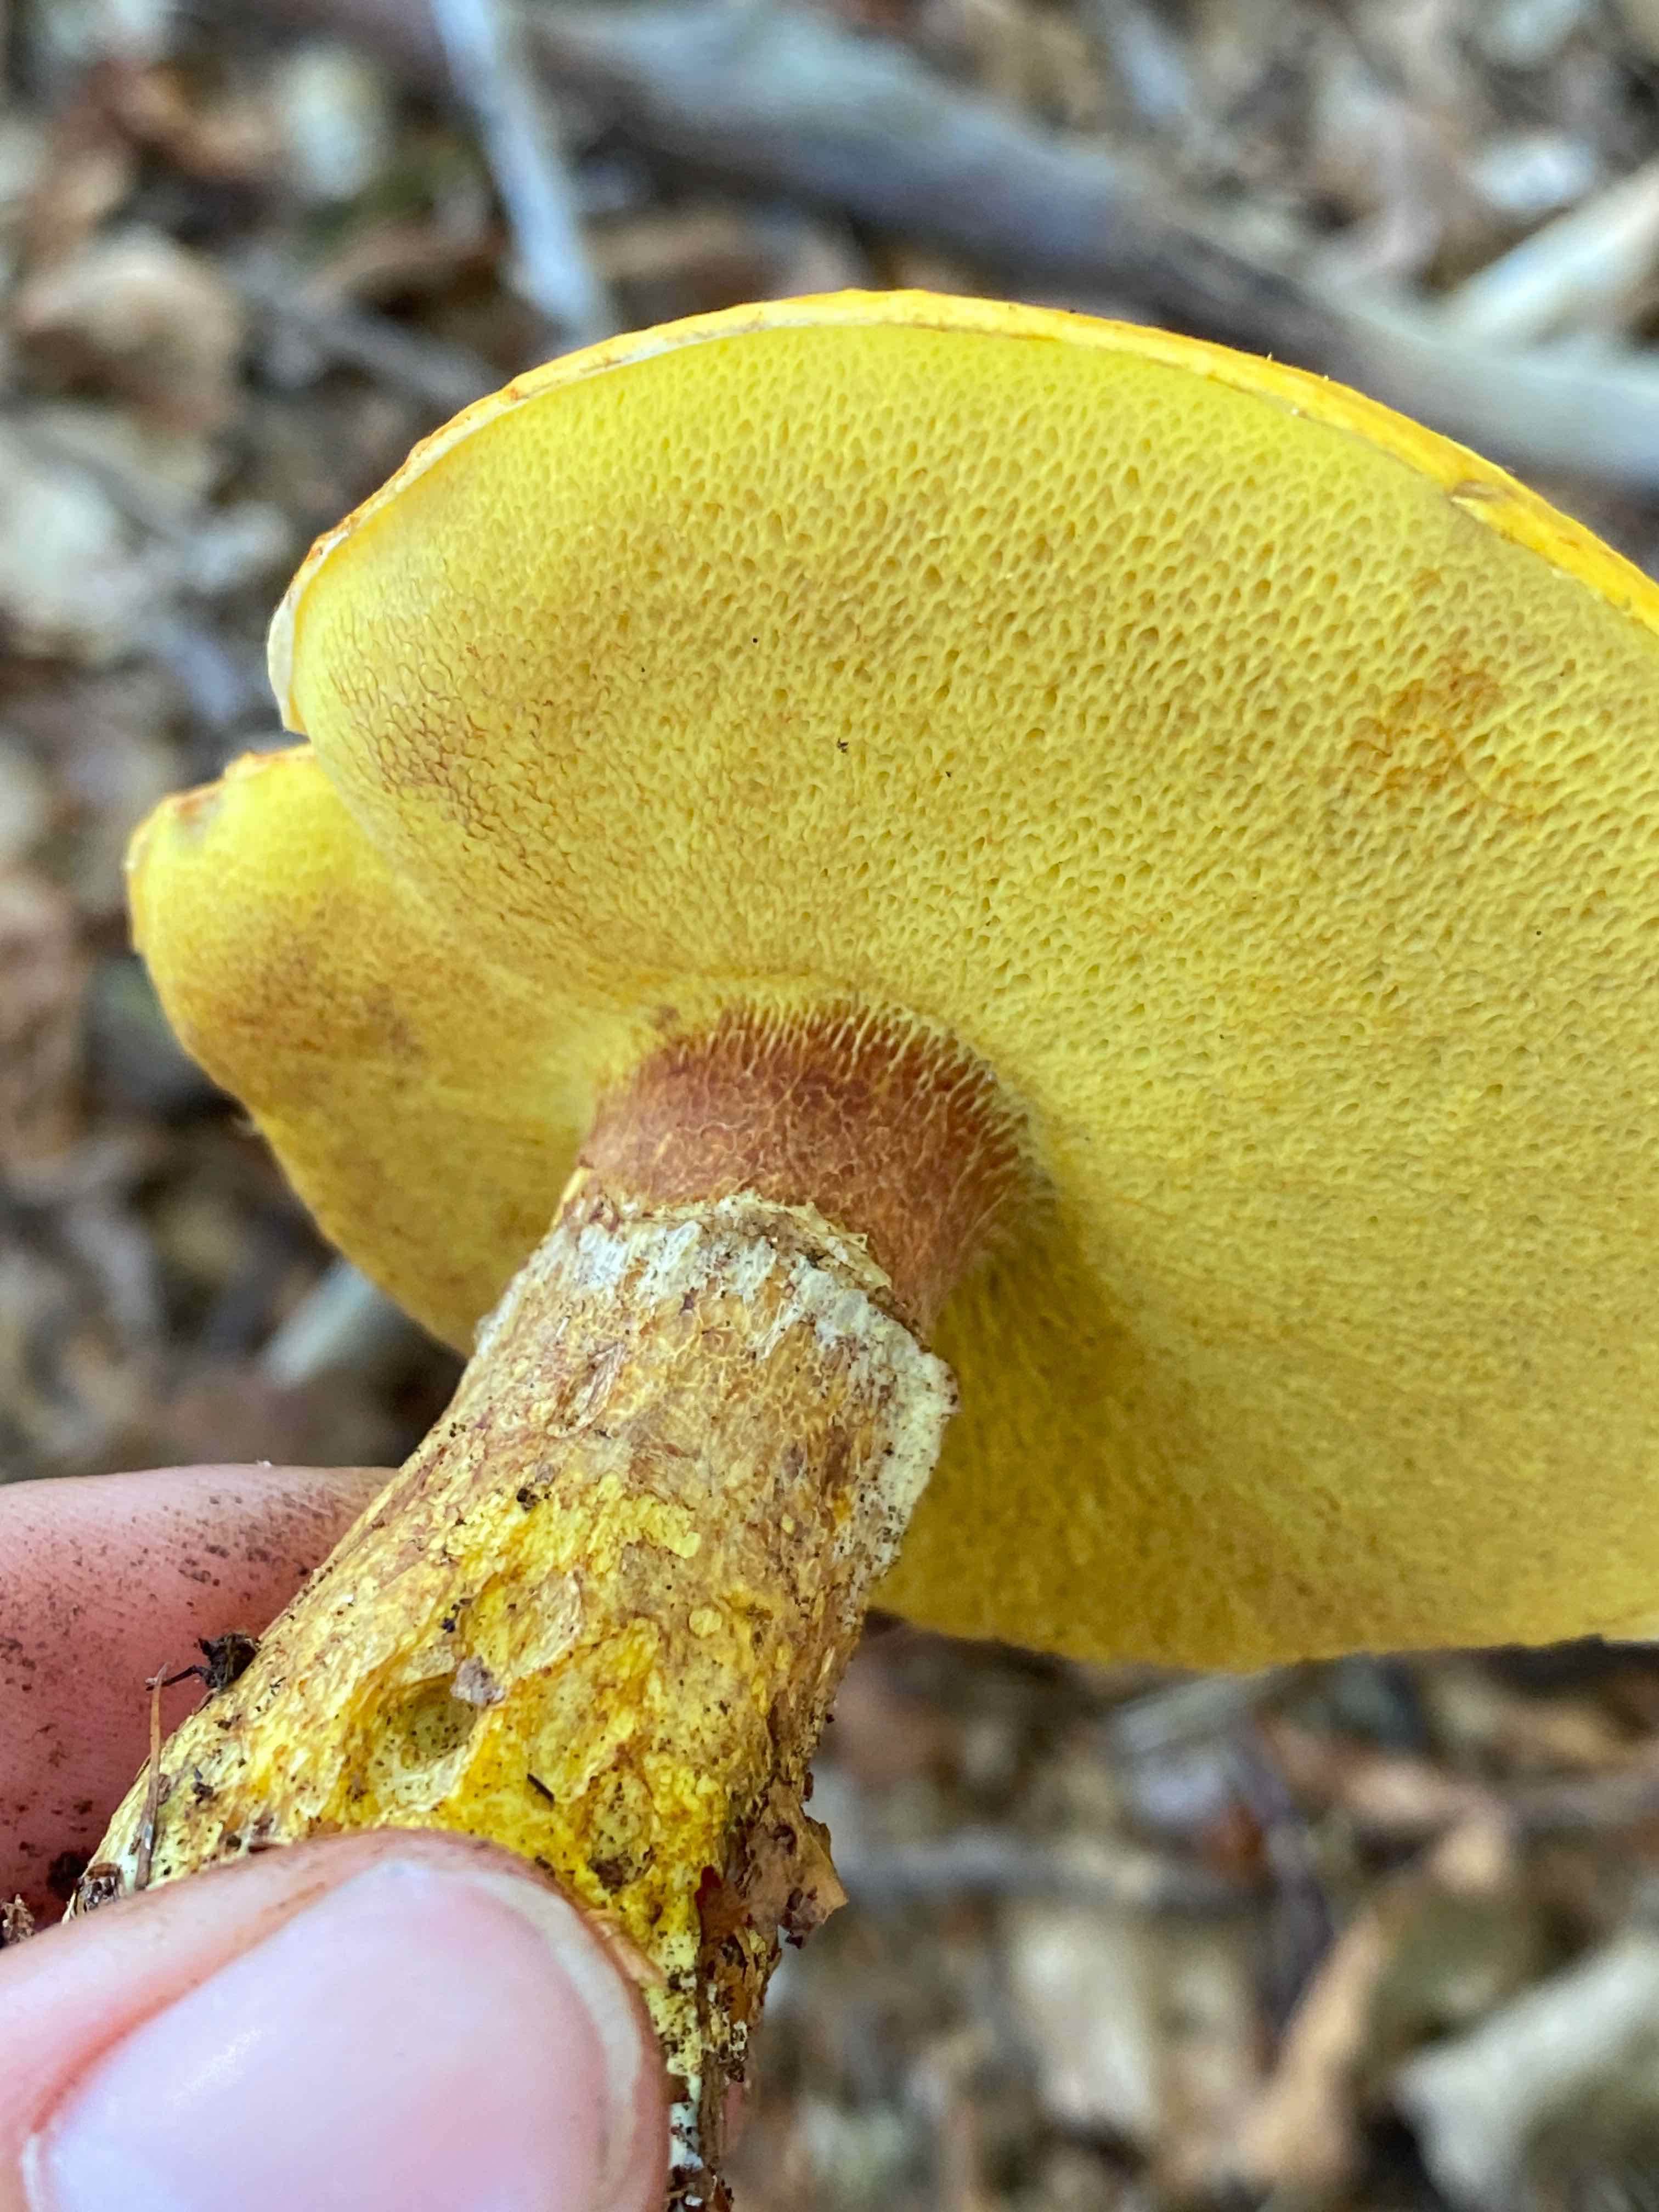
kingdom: Fungi
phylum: Basidiomycota
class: Agaricomycetes
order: Boletales
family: Suillaceae
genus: Suillus
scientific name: Suillus grevillei
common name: lærke-slimrørhat
